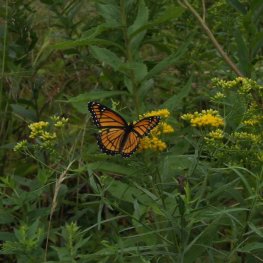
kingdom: Animalia
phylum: Arthropoda
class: Insecta
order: Lepidoptera
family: Nymphalidae
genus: Limenitis
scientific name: Limenitis archippus
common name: Viceroy
